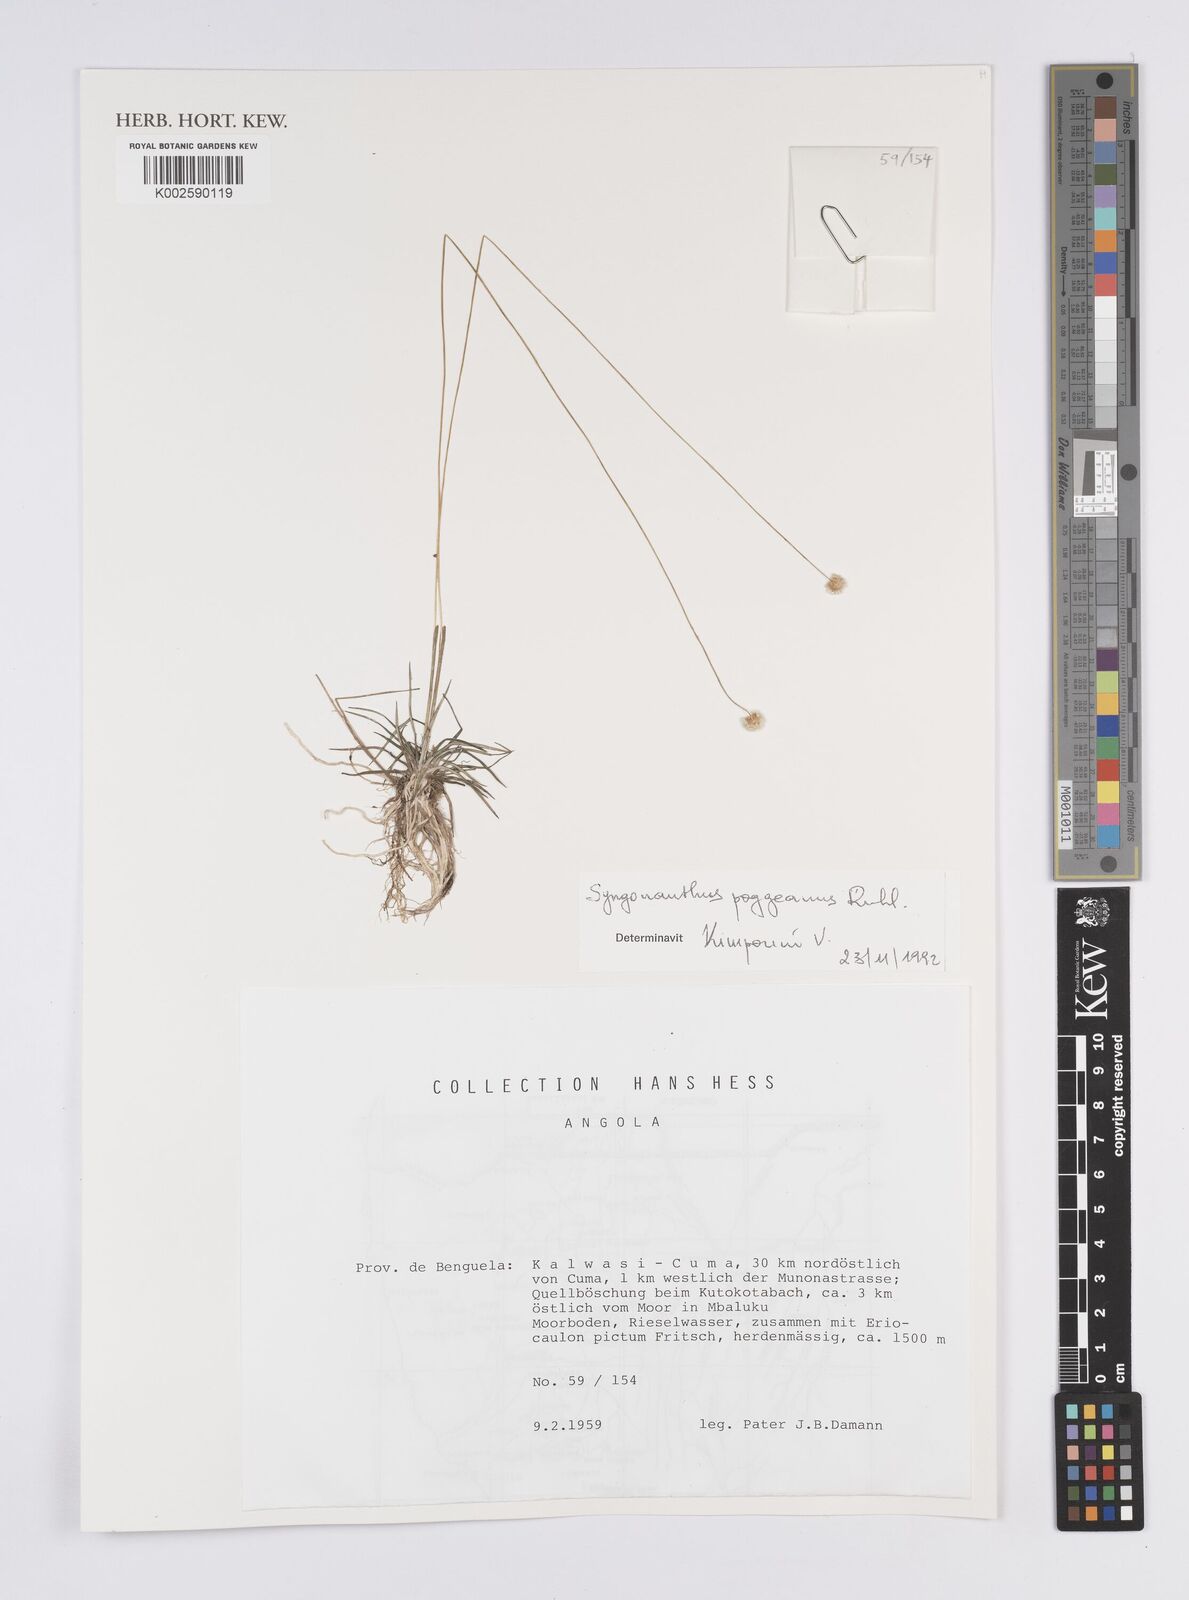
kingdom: Plantae
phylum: Tracheophyta
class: Liliopsida
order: Poales
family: Eriocaulaceae
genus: Syngonanthus
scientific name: Syngonanthus poggeanus
